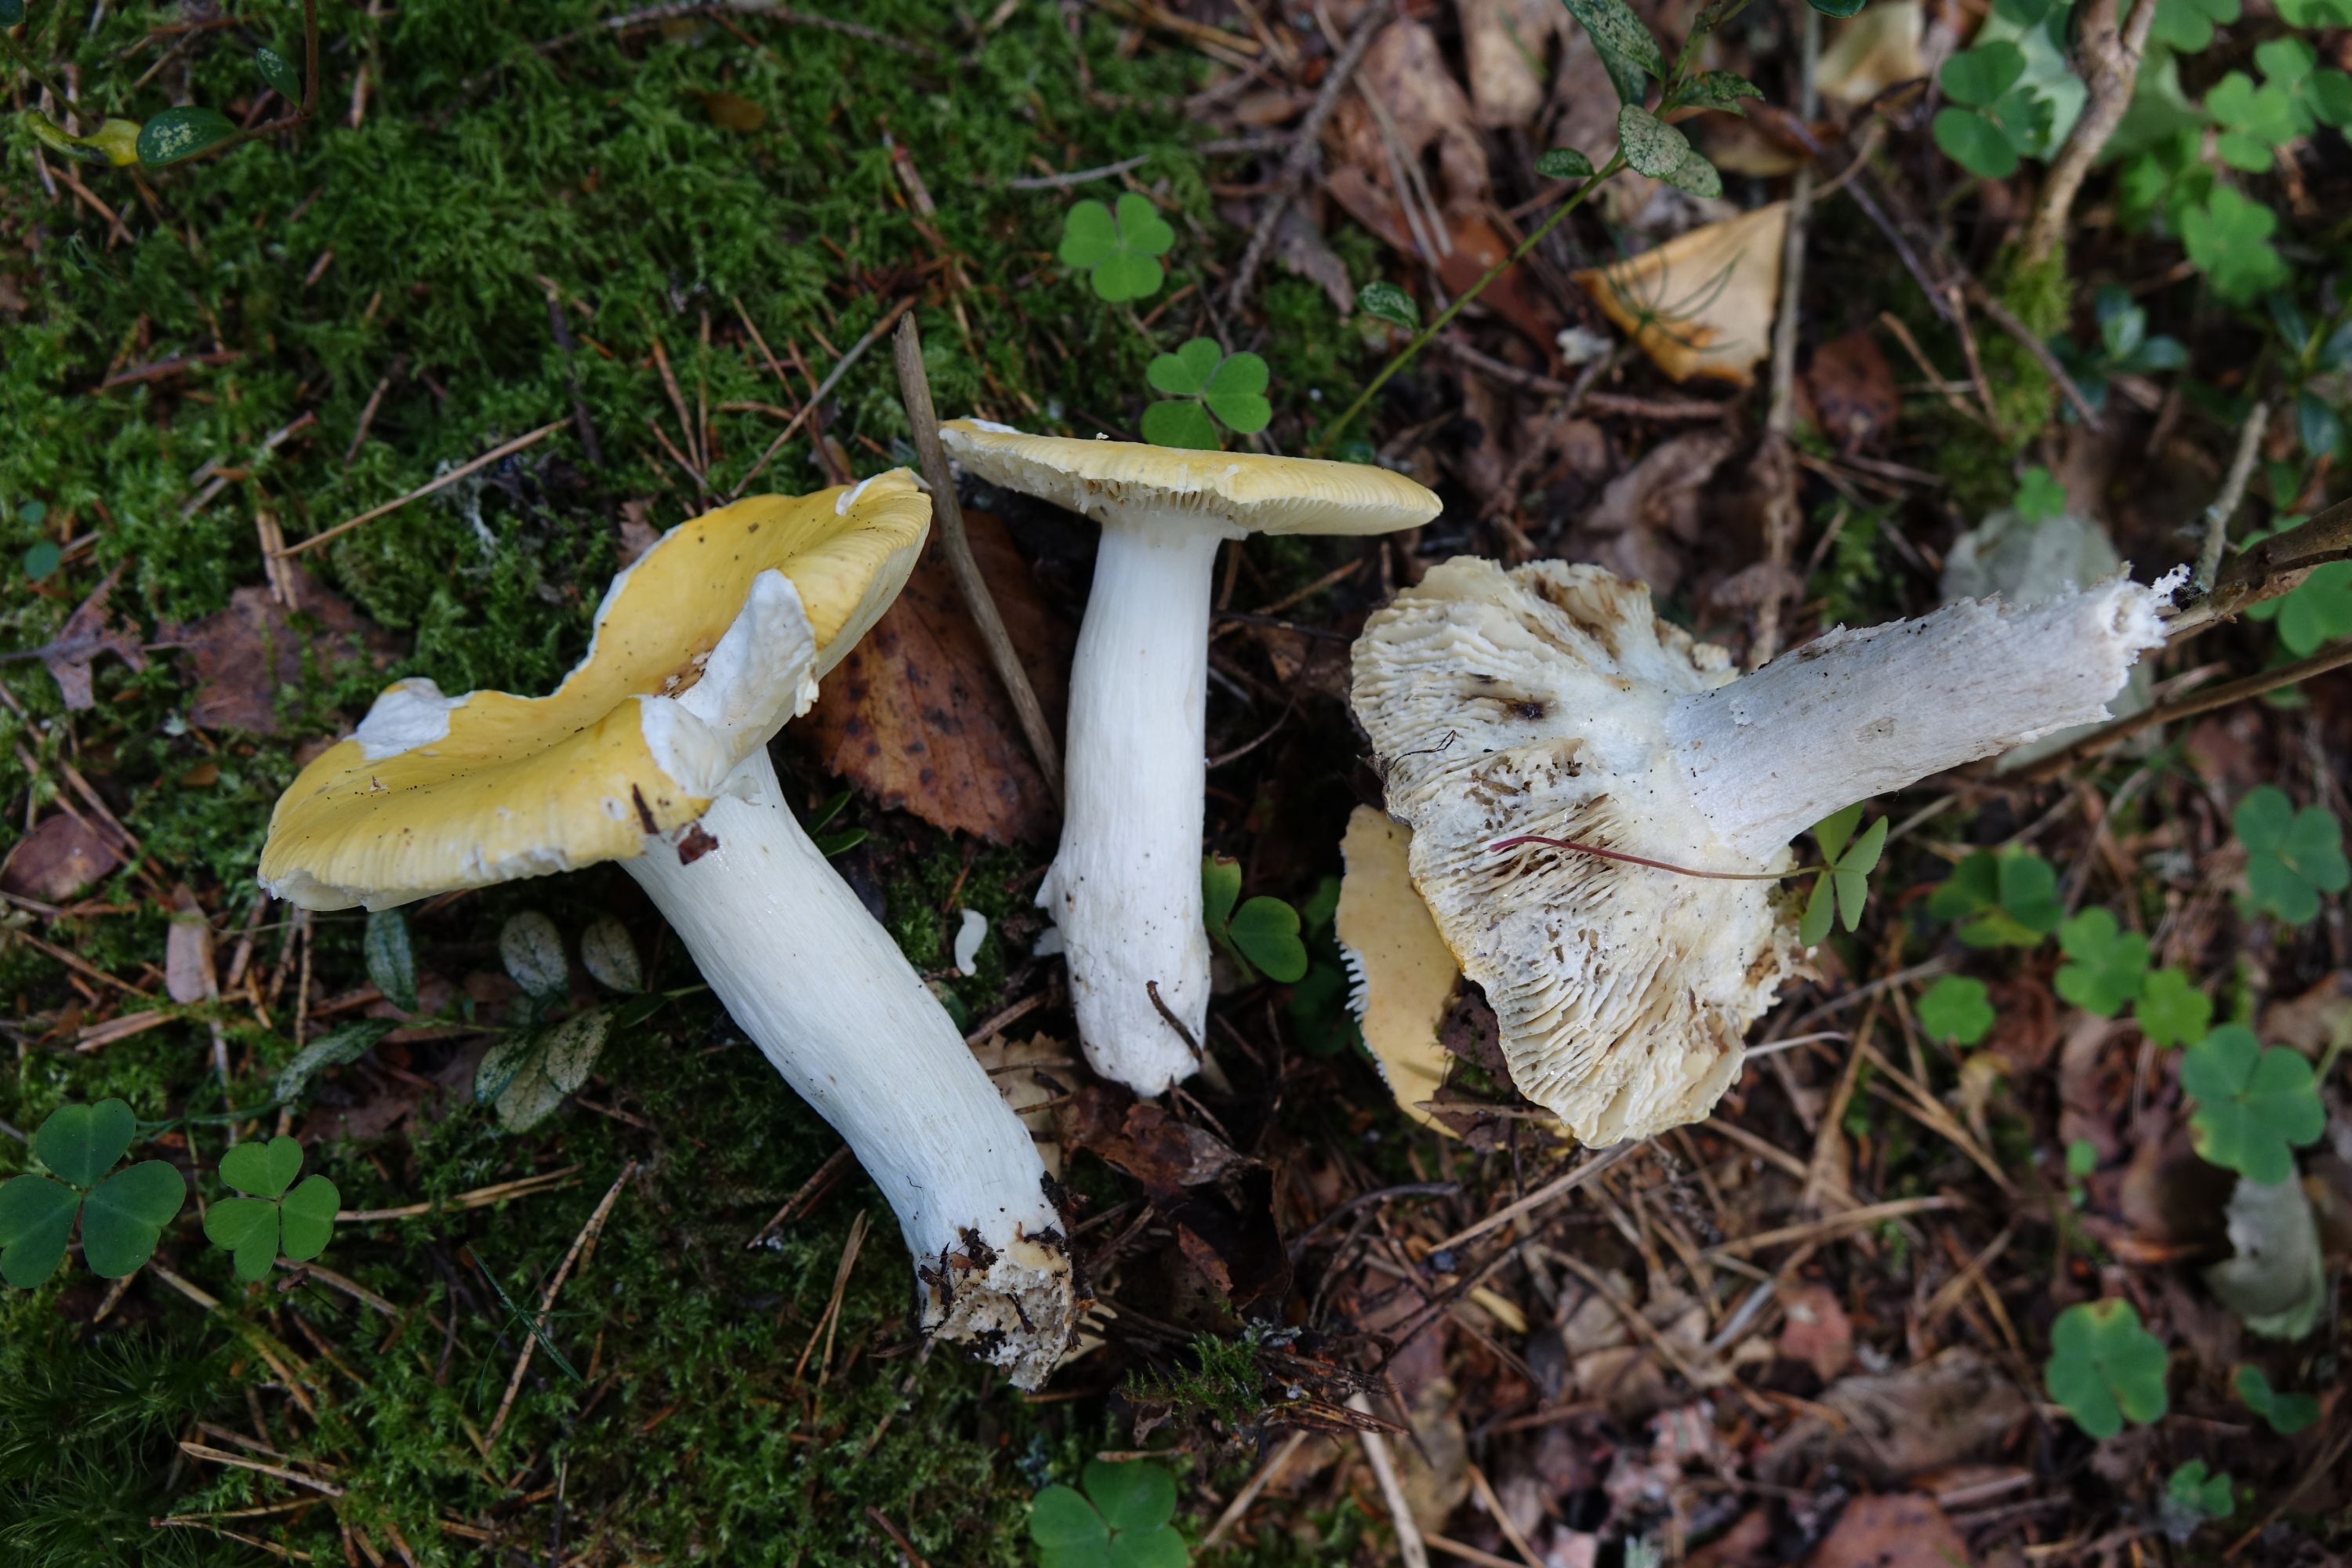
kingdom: Fungi
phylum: Basidiomycota
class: Agaricomycetes
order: Russulales
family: Russulaceae
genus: Russula
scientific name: Russula claroflava
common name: The yellow swamp brittlegill
